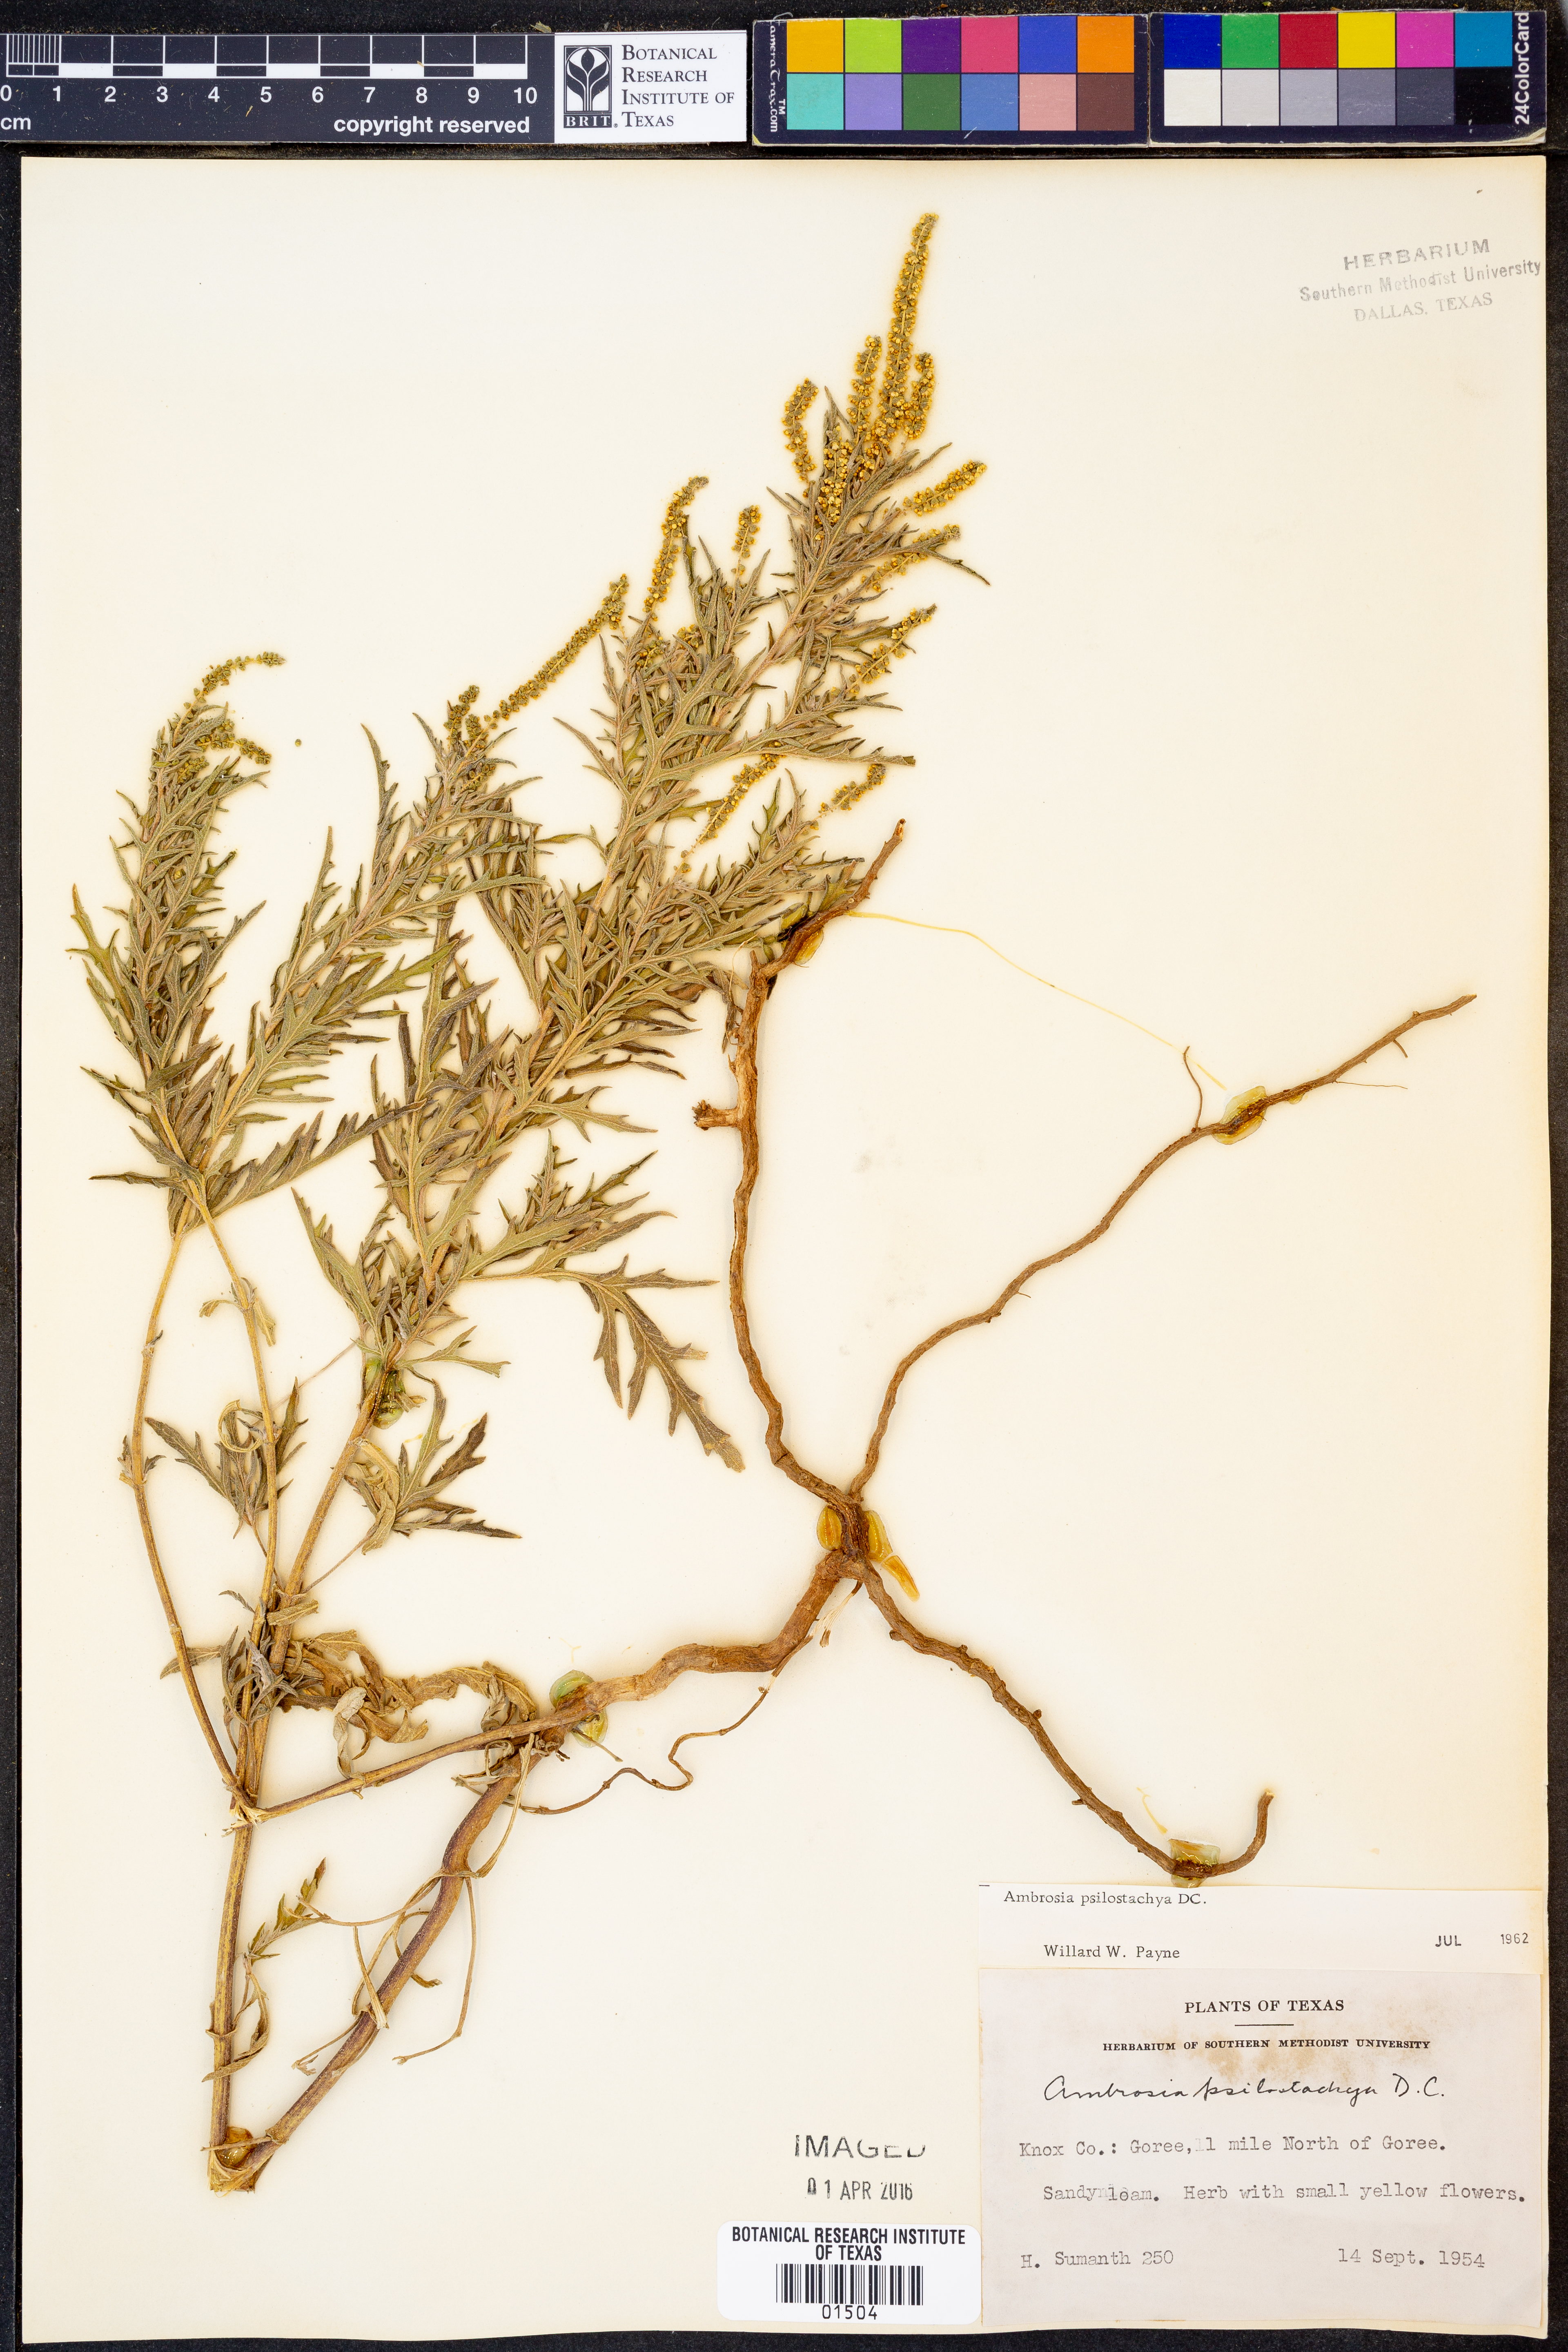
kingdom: Plantae
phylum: Tracheophyta
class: Magnoliopsida
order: Asterales
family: Asteraceae
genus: Ambrosia
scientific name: Ambrosia psilostachya
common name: Perennial ragweed
